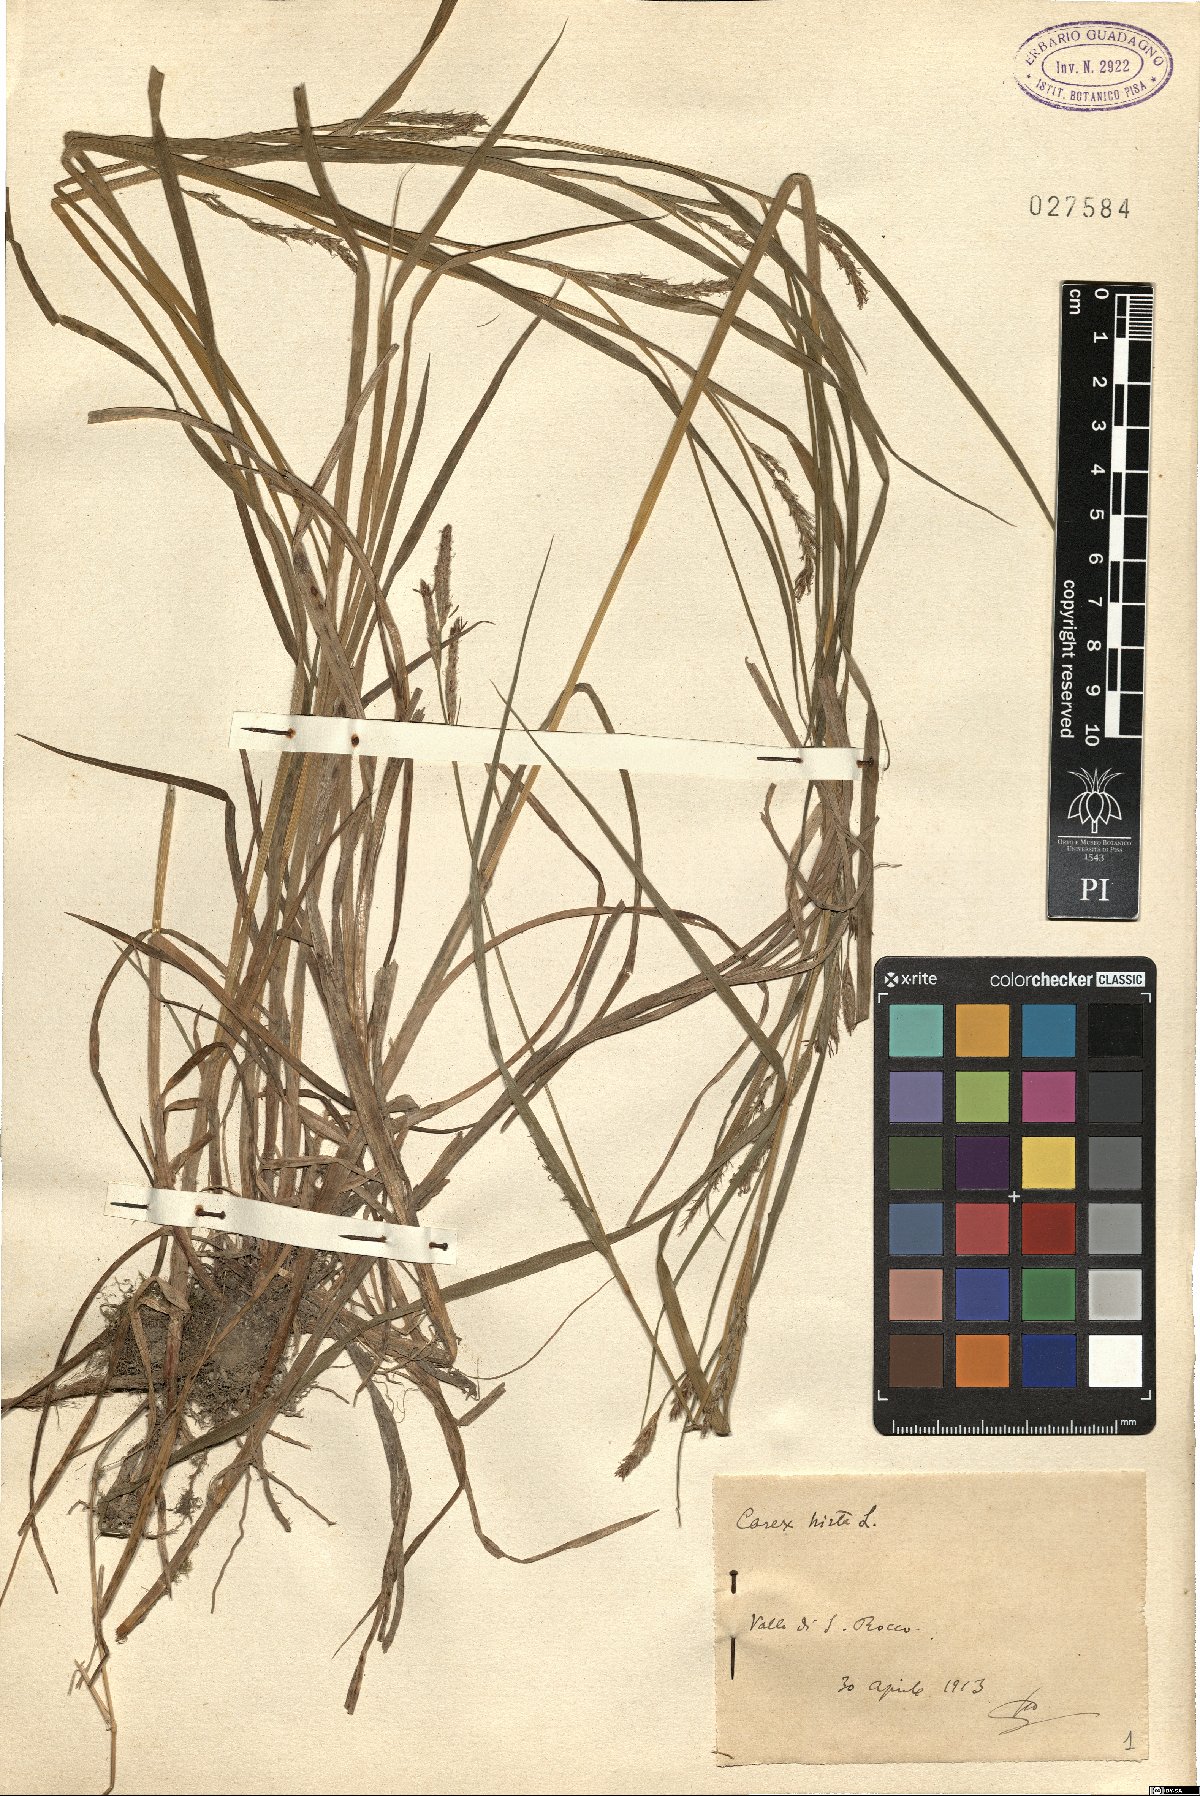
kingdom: Plantae
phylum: Tracheophyta
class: Liliopsida
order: Poales
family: Cyperaceae
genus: Carex
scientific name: Carex hirta
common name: Hairy sedge
